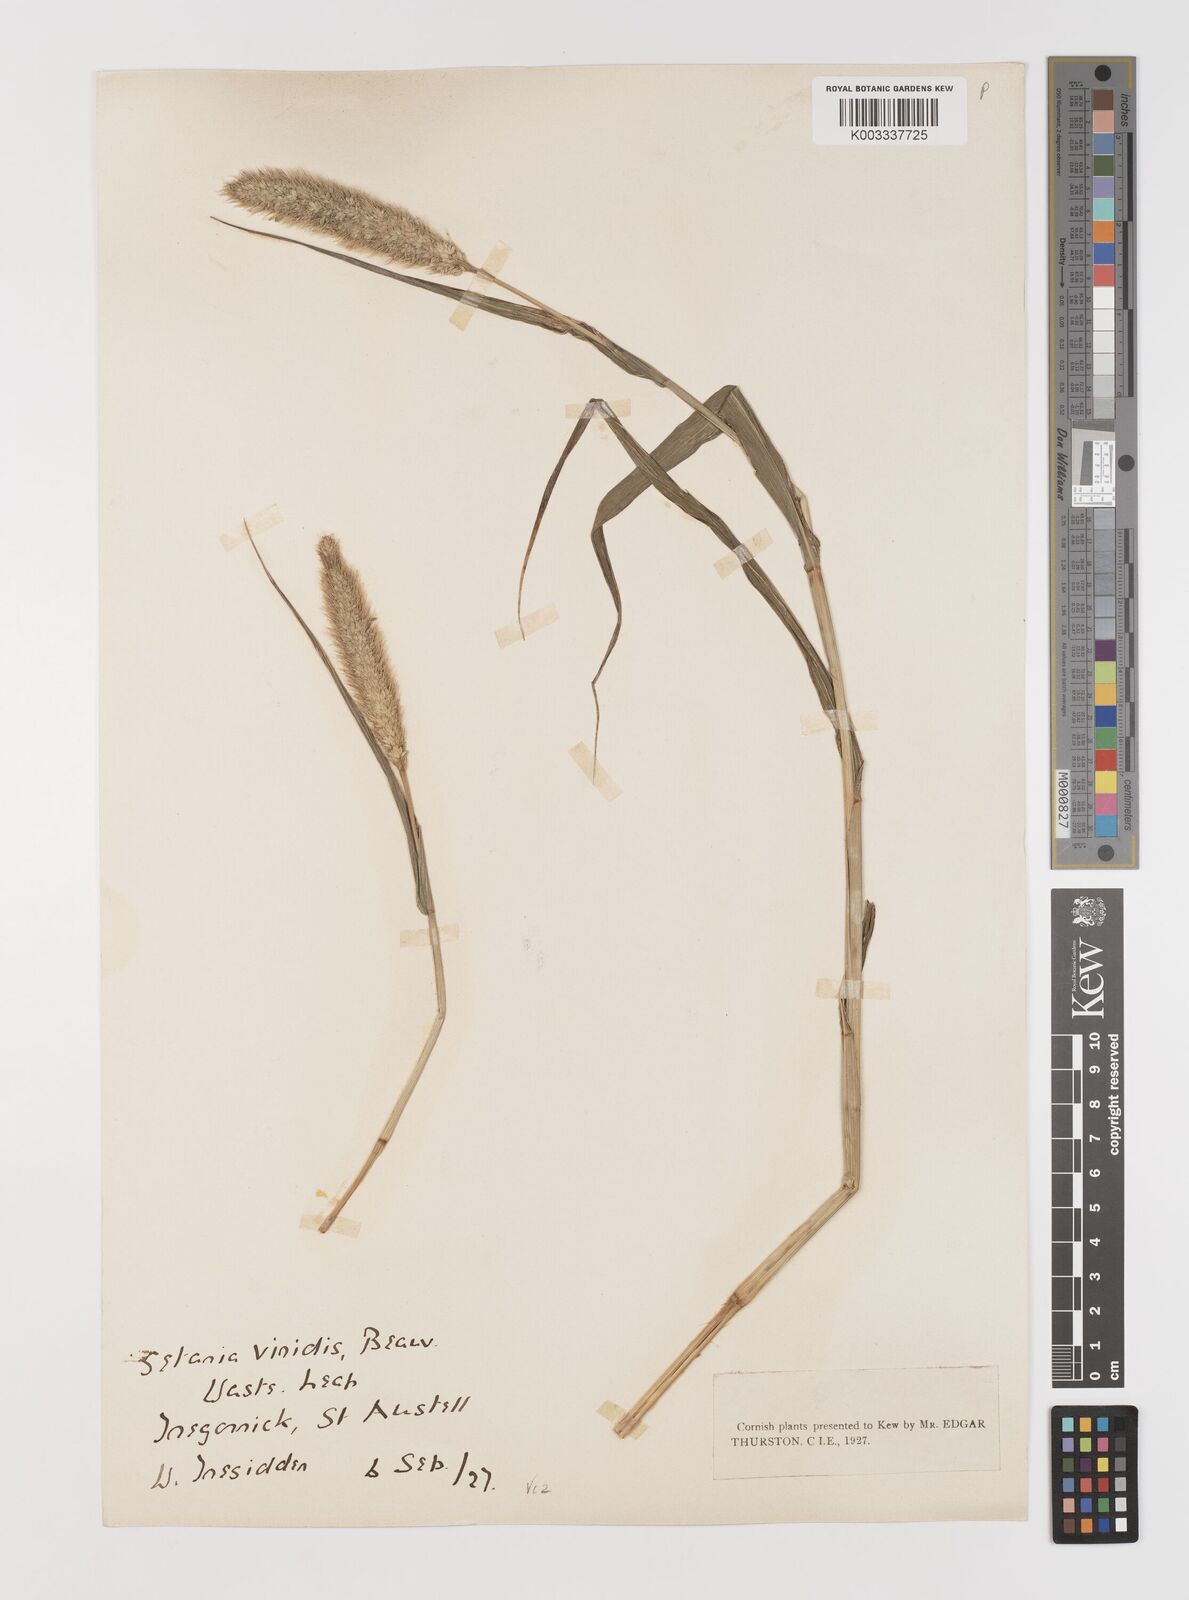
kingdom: Plantae
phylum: Tracheophyta
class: Liliopsida
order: Poales
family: Poaceae
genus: Setaria
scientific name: Setaria viridis
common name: Green bristlegrass
